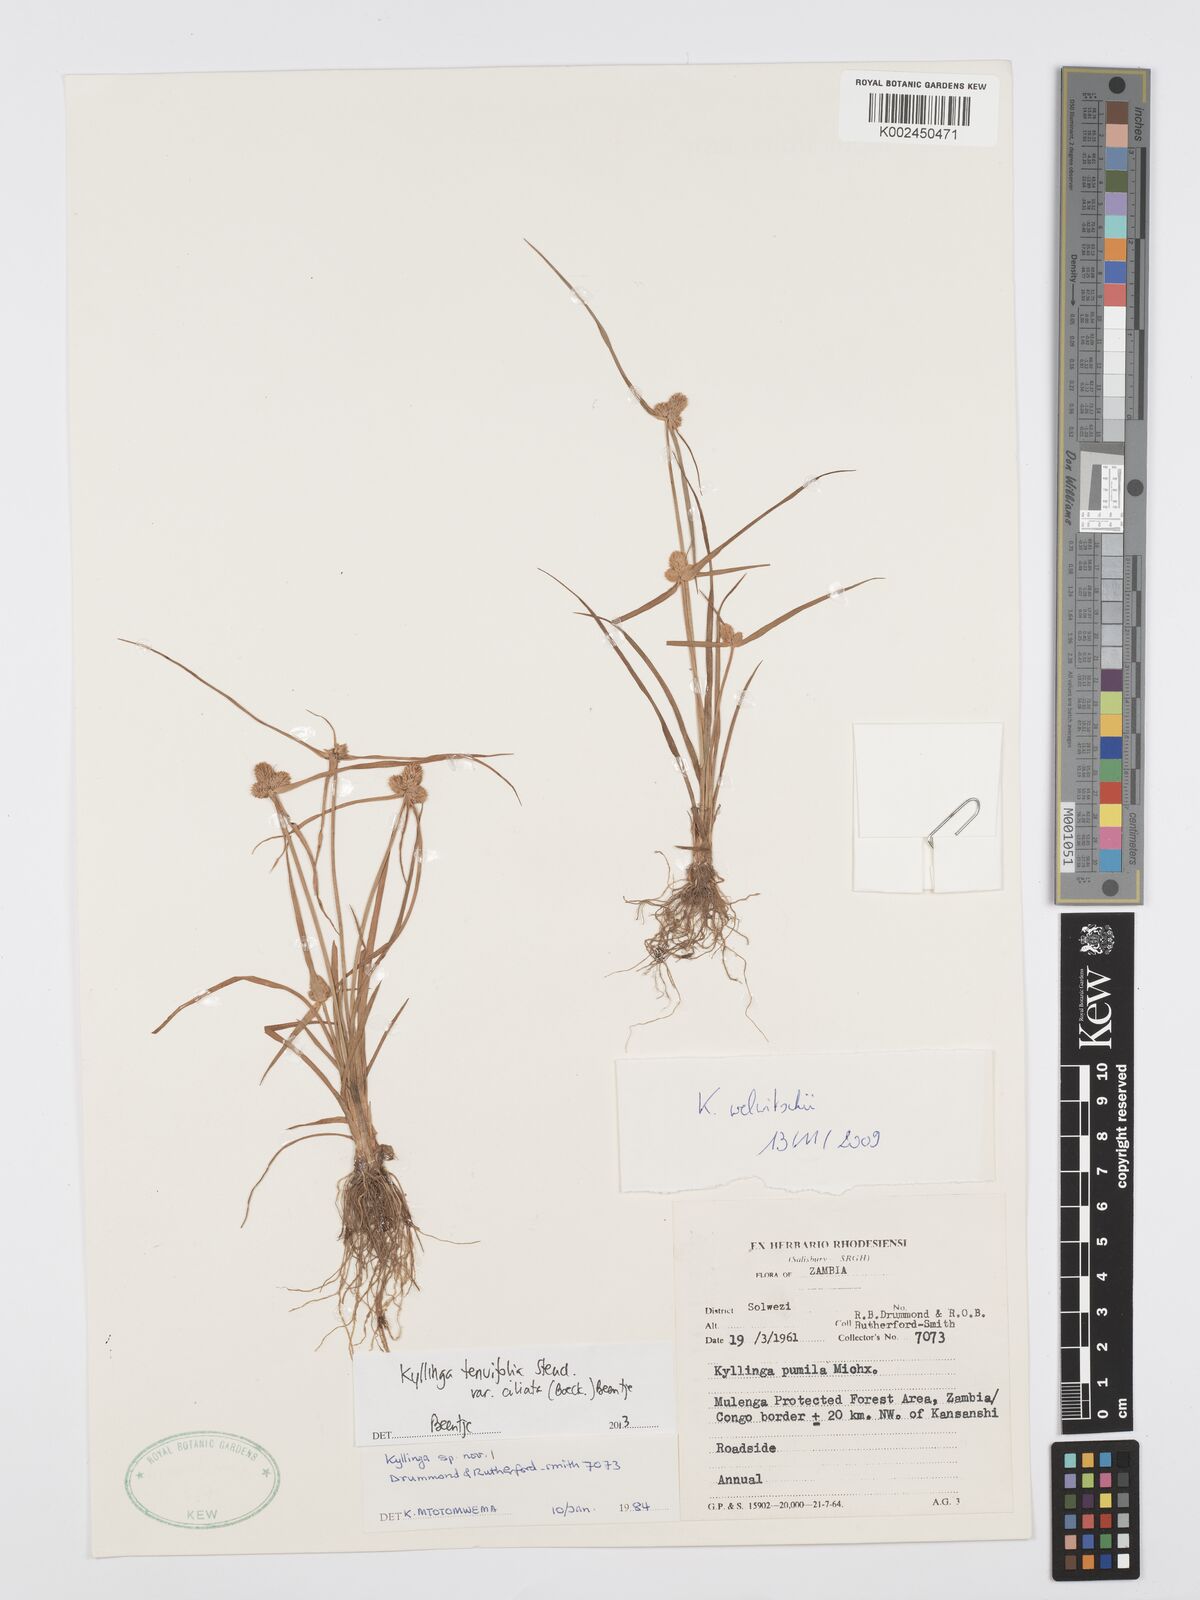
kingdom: Plantae
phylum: Tracheophyta
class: Liliopsida
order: Poales
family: Cyperaceae
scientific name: Cyperaceae
